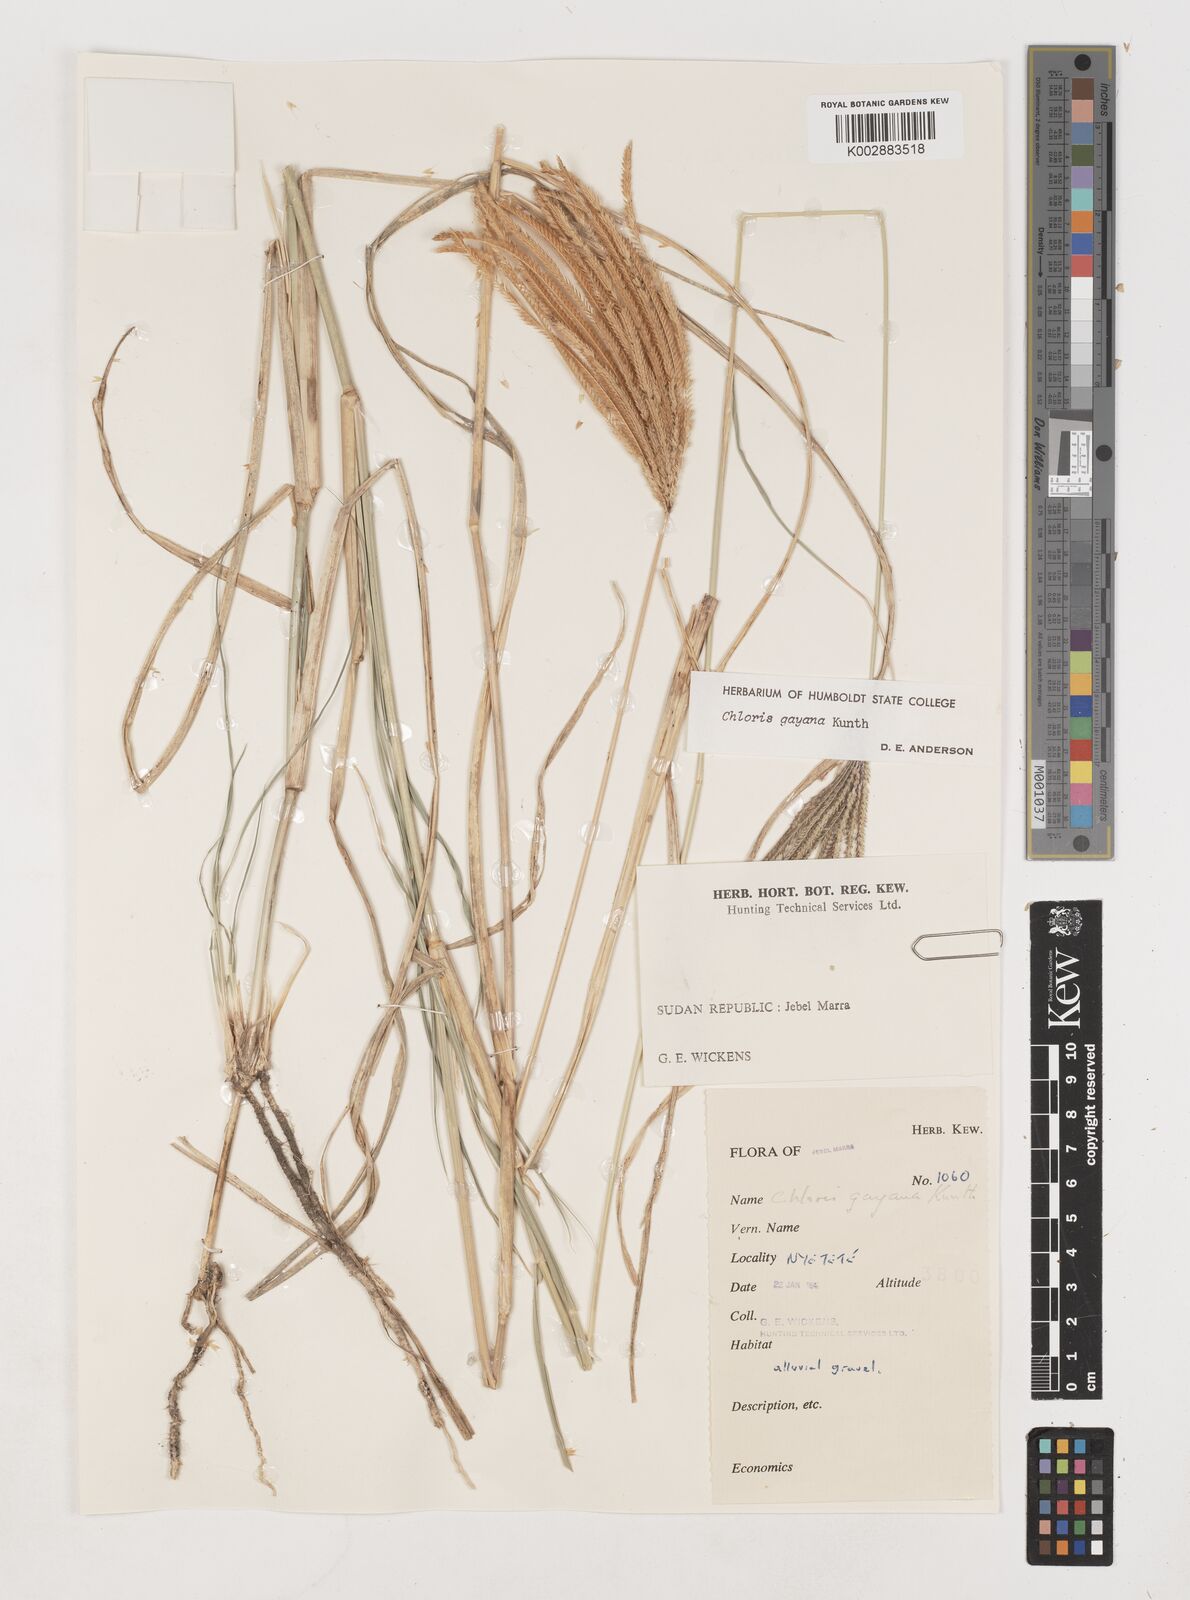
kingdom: Plantae
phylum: Tracheophyta
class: Liliopsida
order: Poales
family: Poaceae
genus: Chloris
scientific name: Chloris gayana
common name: Rhodes grass
